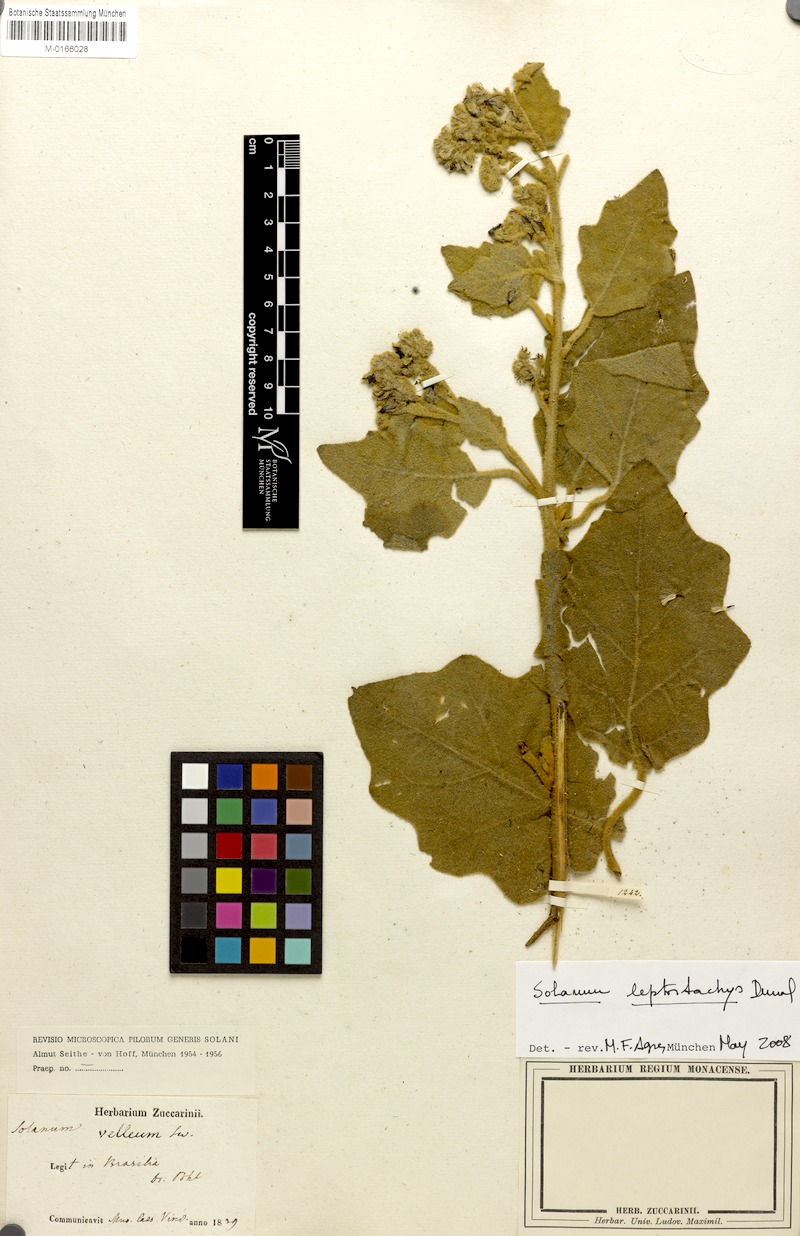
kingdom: Plantae
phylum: Tracheophyta
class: Magnoliopsida
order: Solanales
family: Solanaceae
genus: Solanum
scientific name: Solanum velleum
